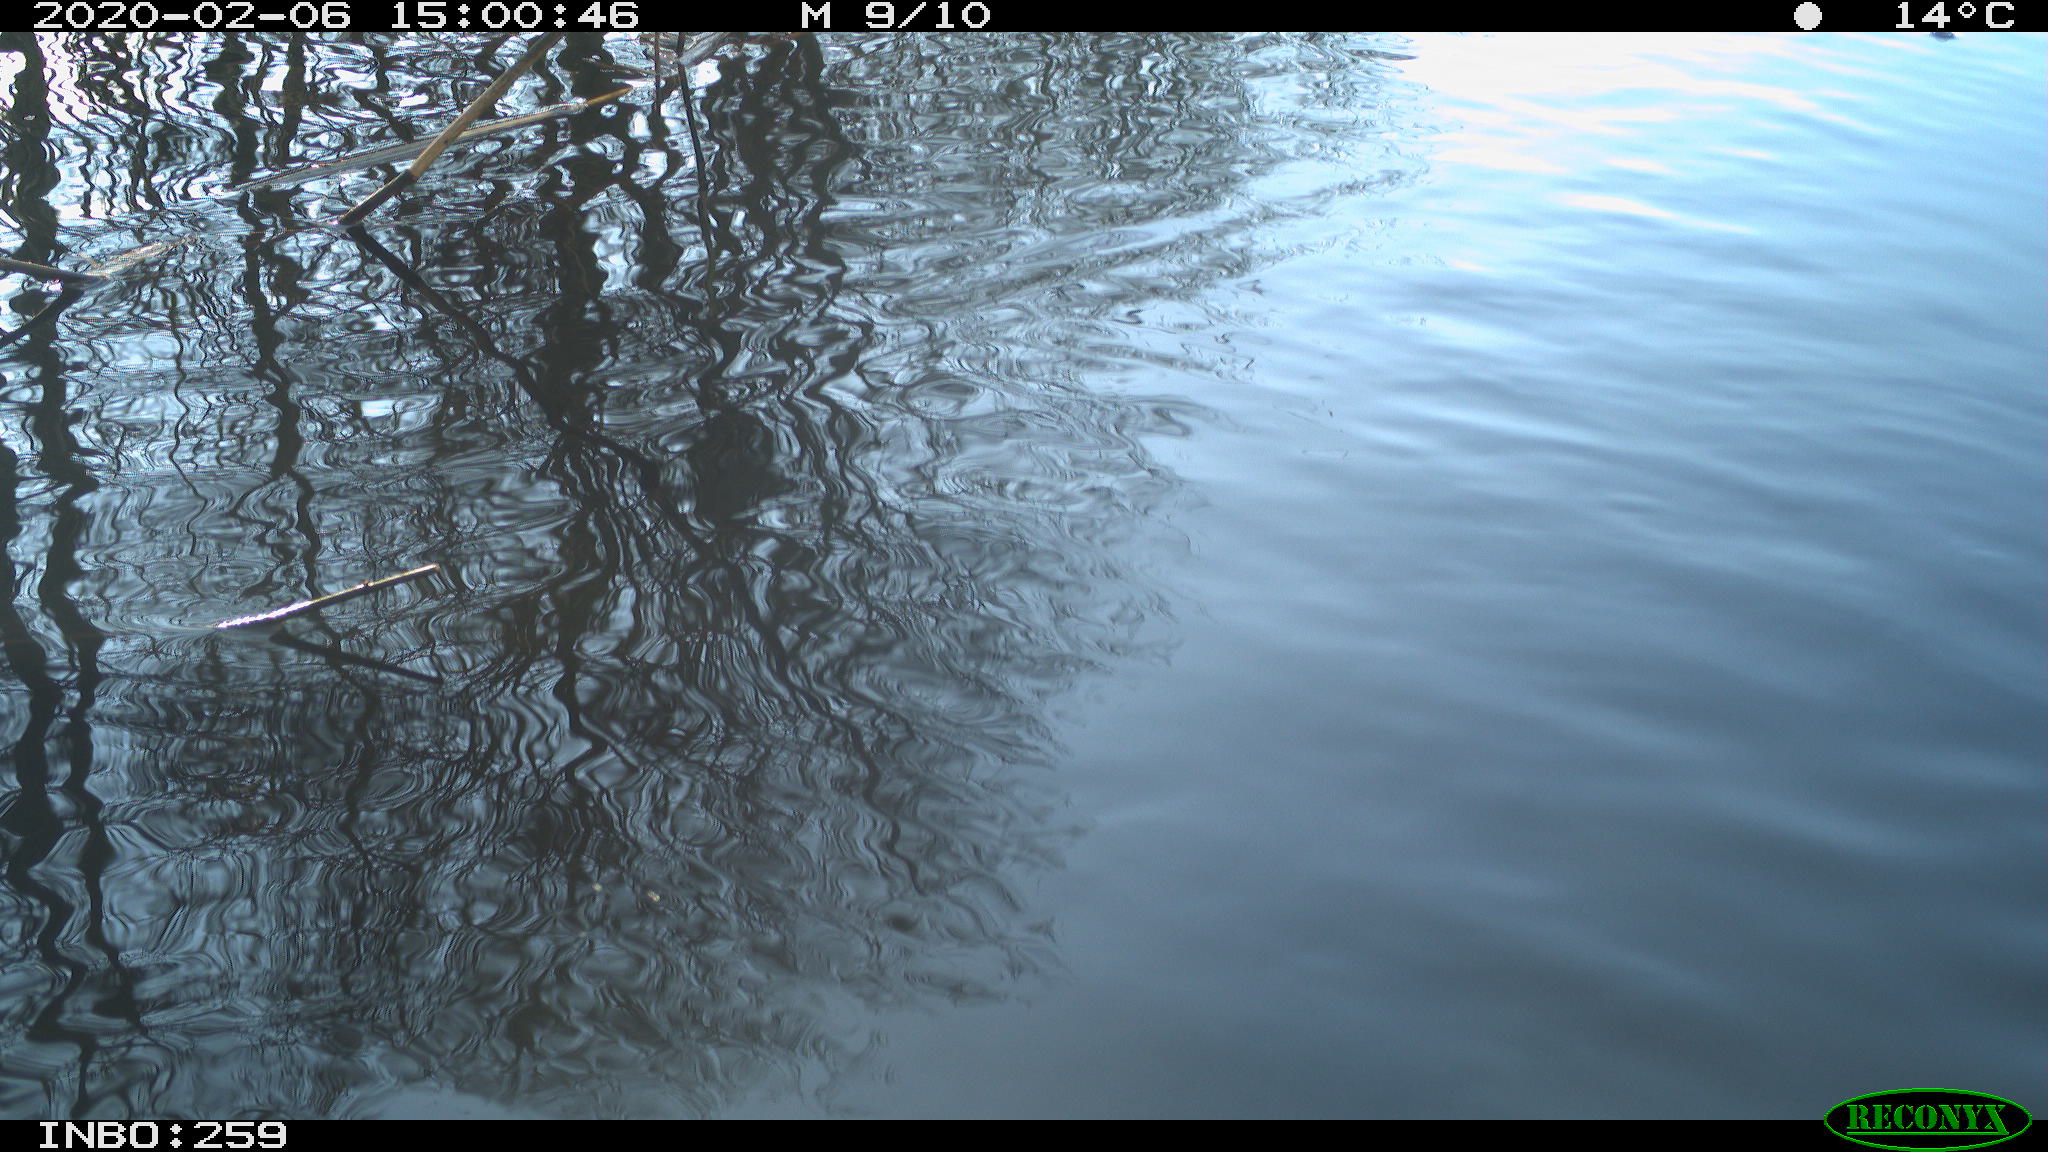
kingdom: Animalia
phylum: Chordata
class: Aves
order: Gruiformes
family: Rallidae
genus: Gallinula
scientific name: Gallinula chloropus
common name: Common moorhen
